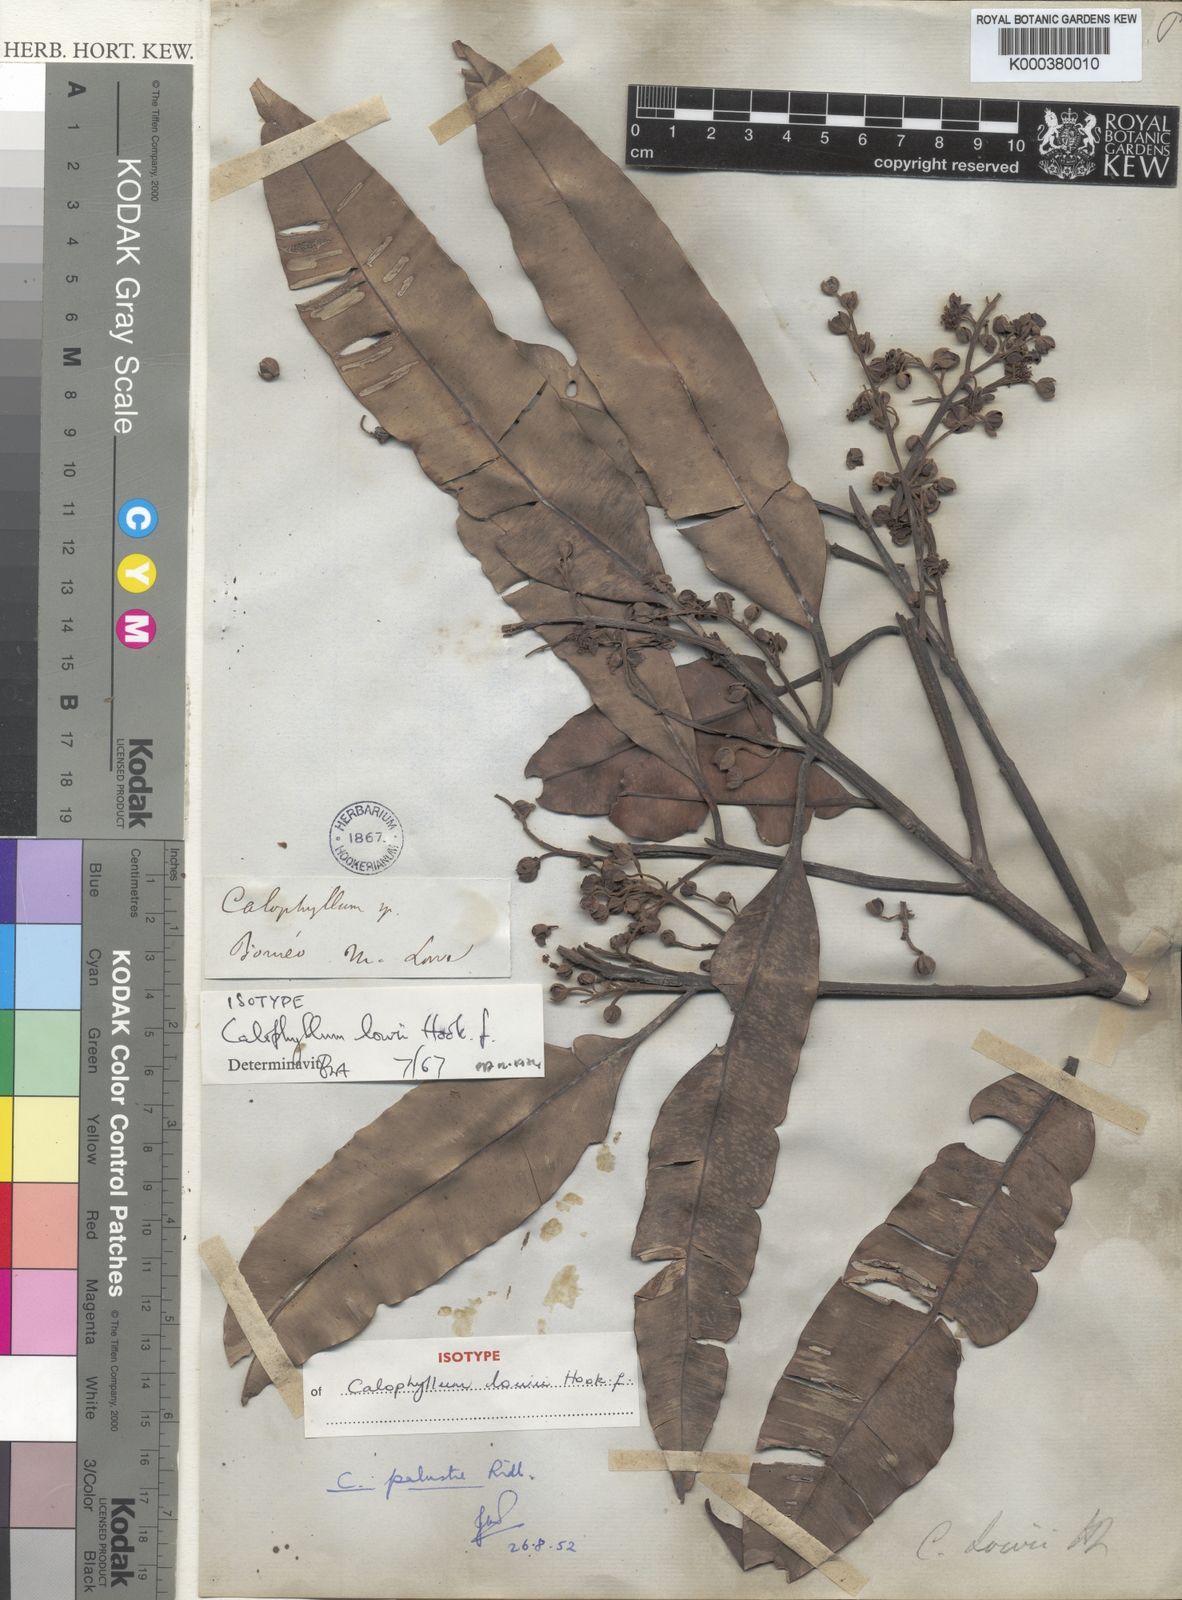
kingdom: Plantae
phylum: Tracheophyta
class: Magnoliopsida
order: Malpighiales
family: Calophyllaceae
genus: Calophyllum
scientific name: Calophyllum lowei
